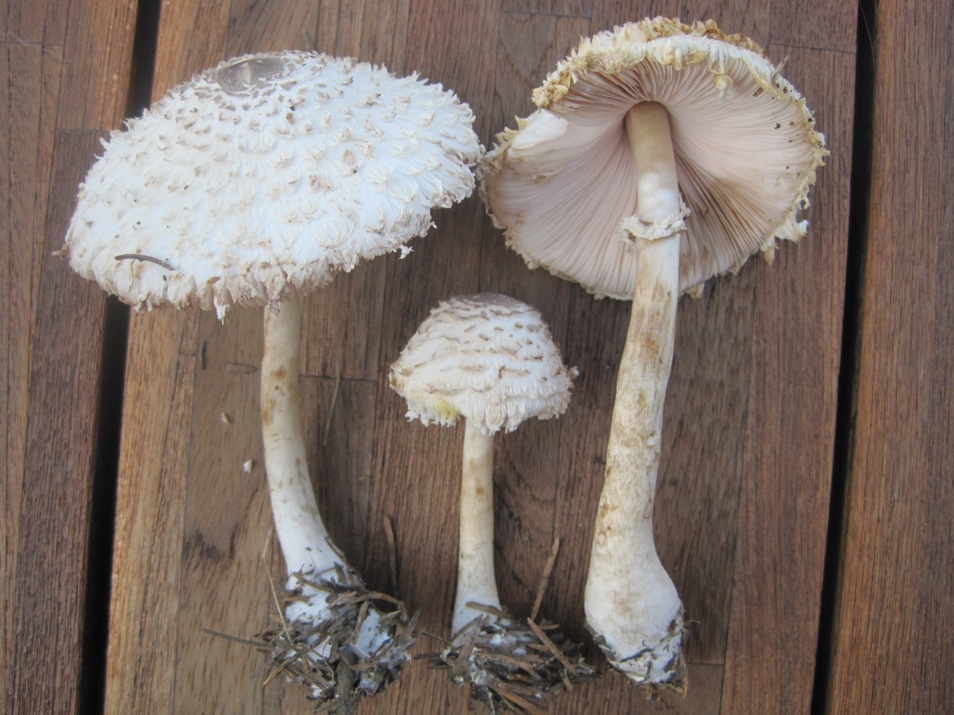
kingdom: Fungi
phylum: Basidiomycota
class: Agaricomycetes
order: Agaricales
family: Agaricaceae
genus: Leucoagaricus
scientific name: Leucoagaricus nympharum
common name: gran-silkehat
